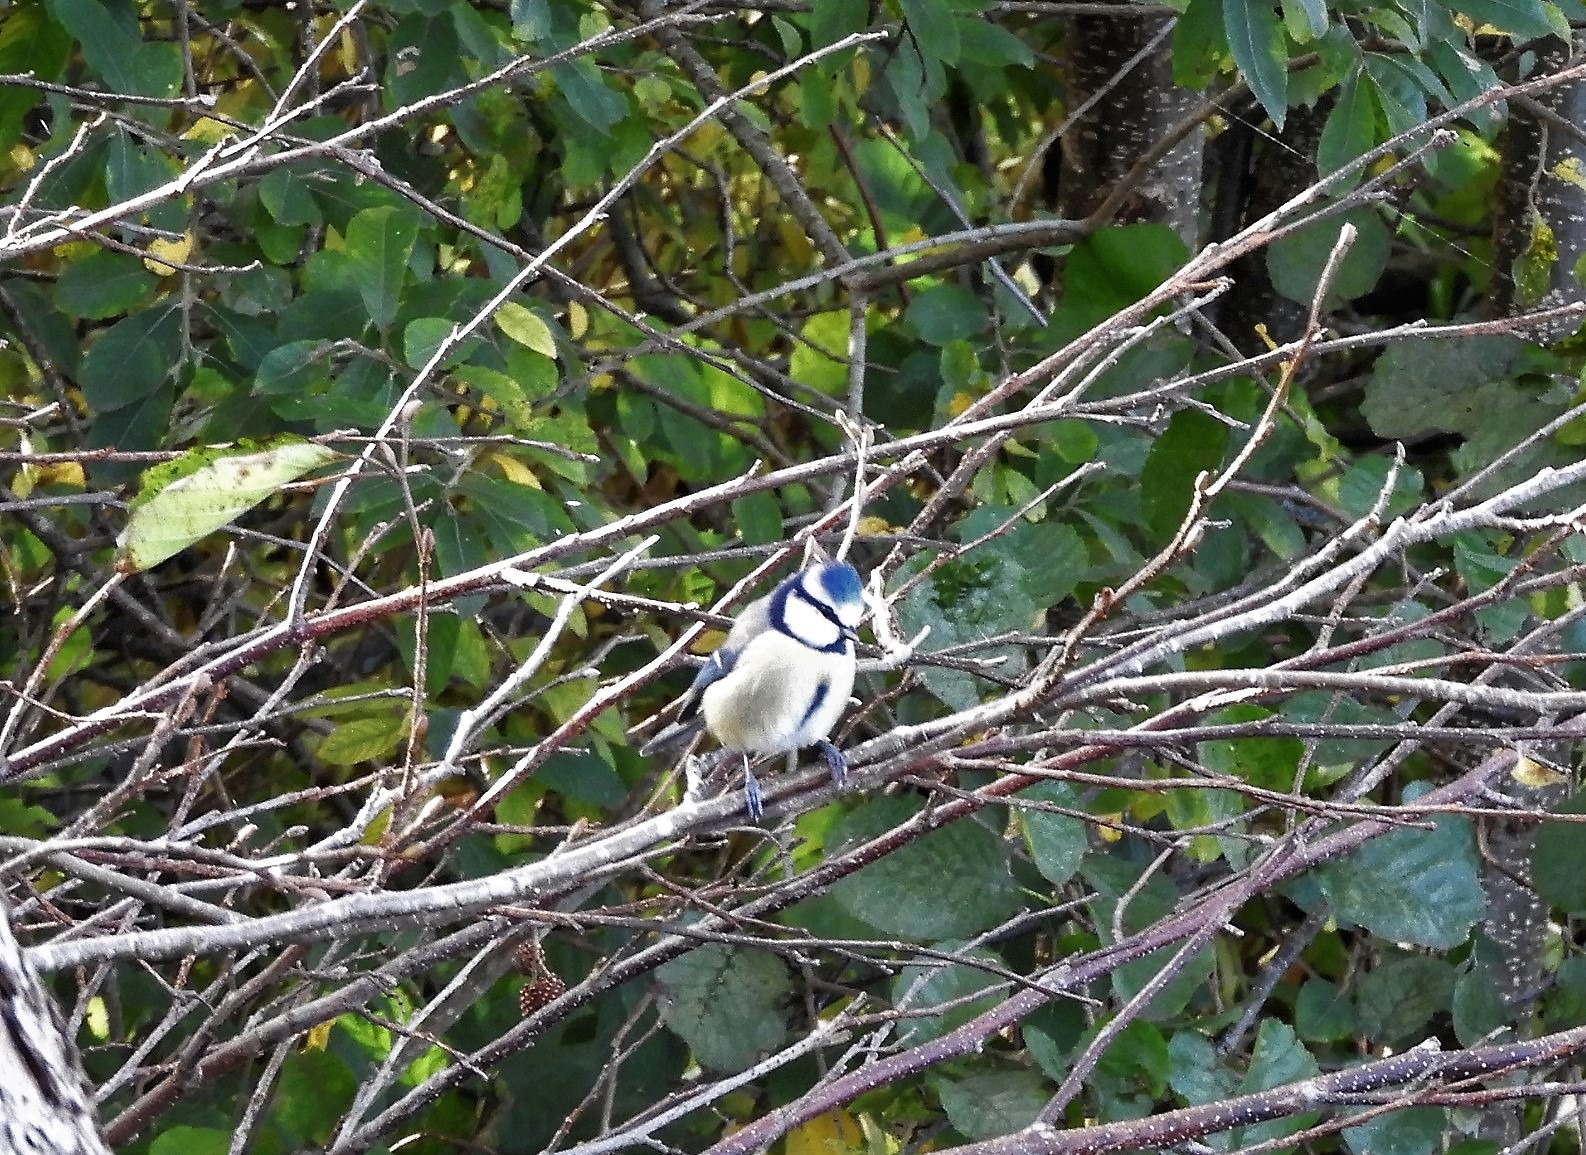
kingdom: Animalia
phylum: Chordata
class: Aves
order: Passeriformes
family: Paridae
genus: Cyanistes
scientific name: Cyanistes caeruleus
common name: Blåmejse
